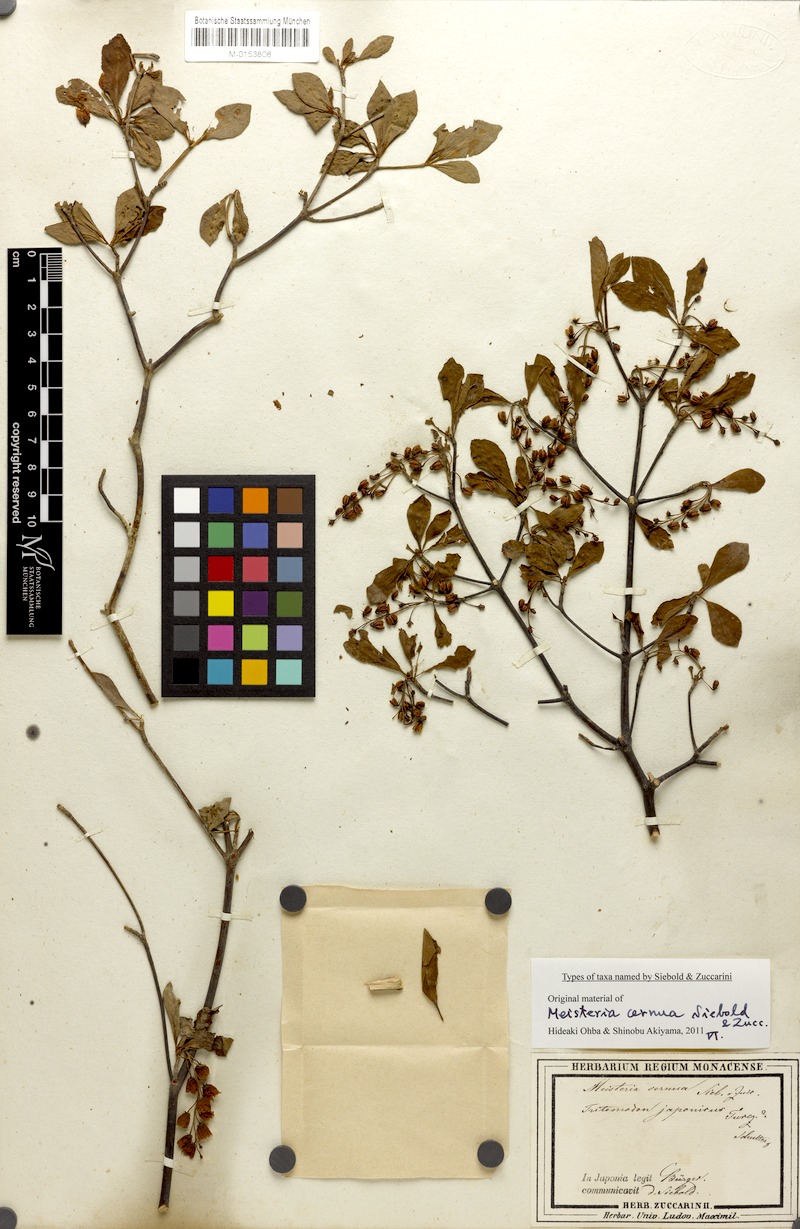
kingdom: Plantae
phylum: Tracheophyta
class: Magnoliopsida
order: Ericales
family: Ericaceae
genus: Enkianthus
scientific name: Enkianthus cernuus
